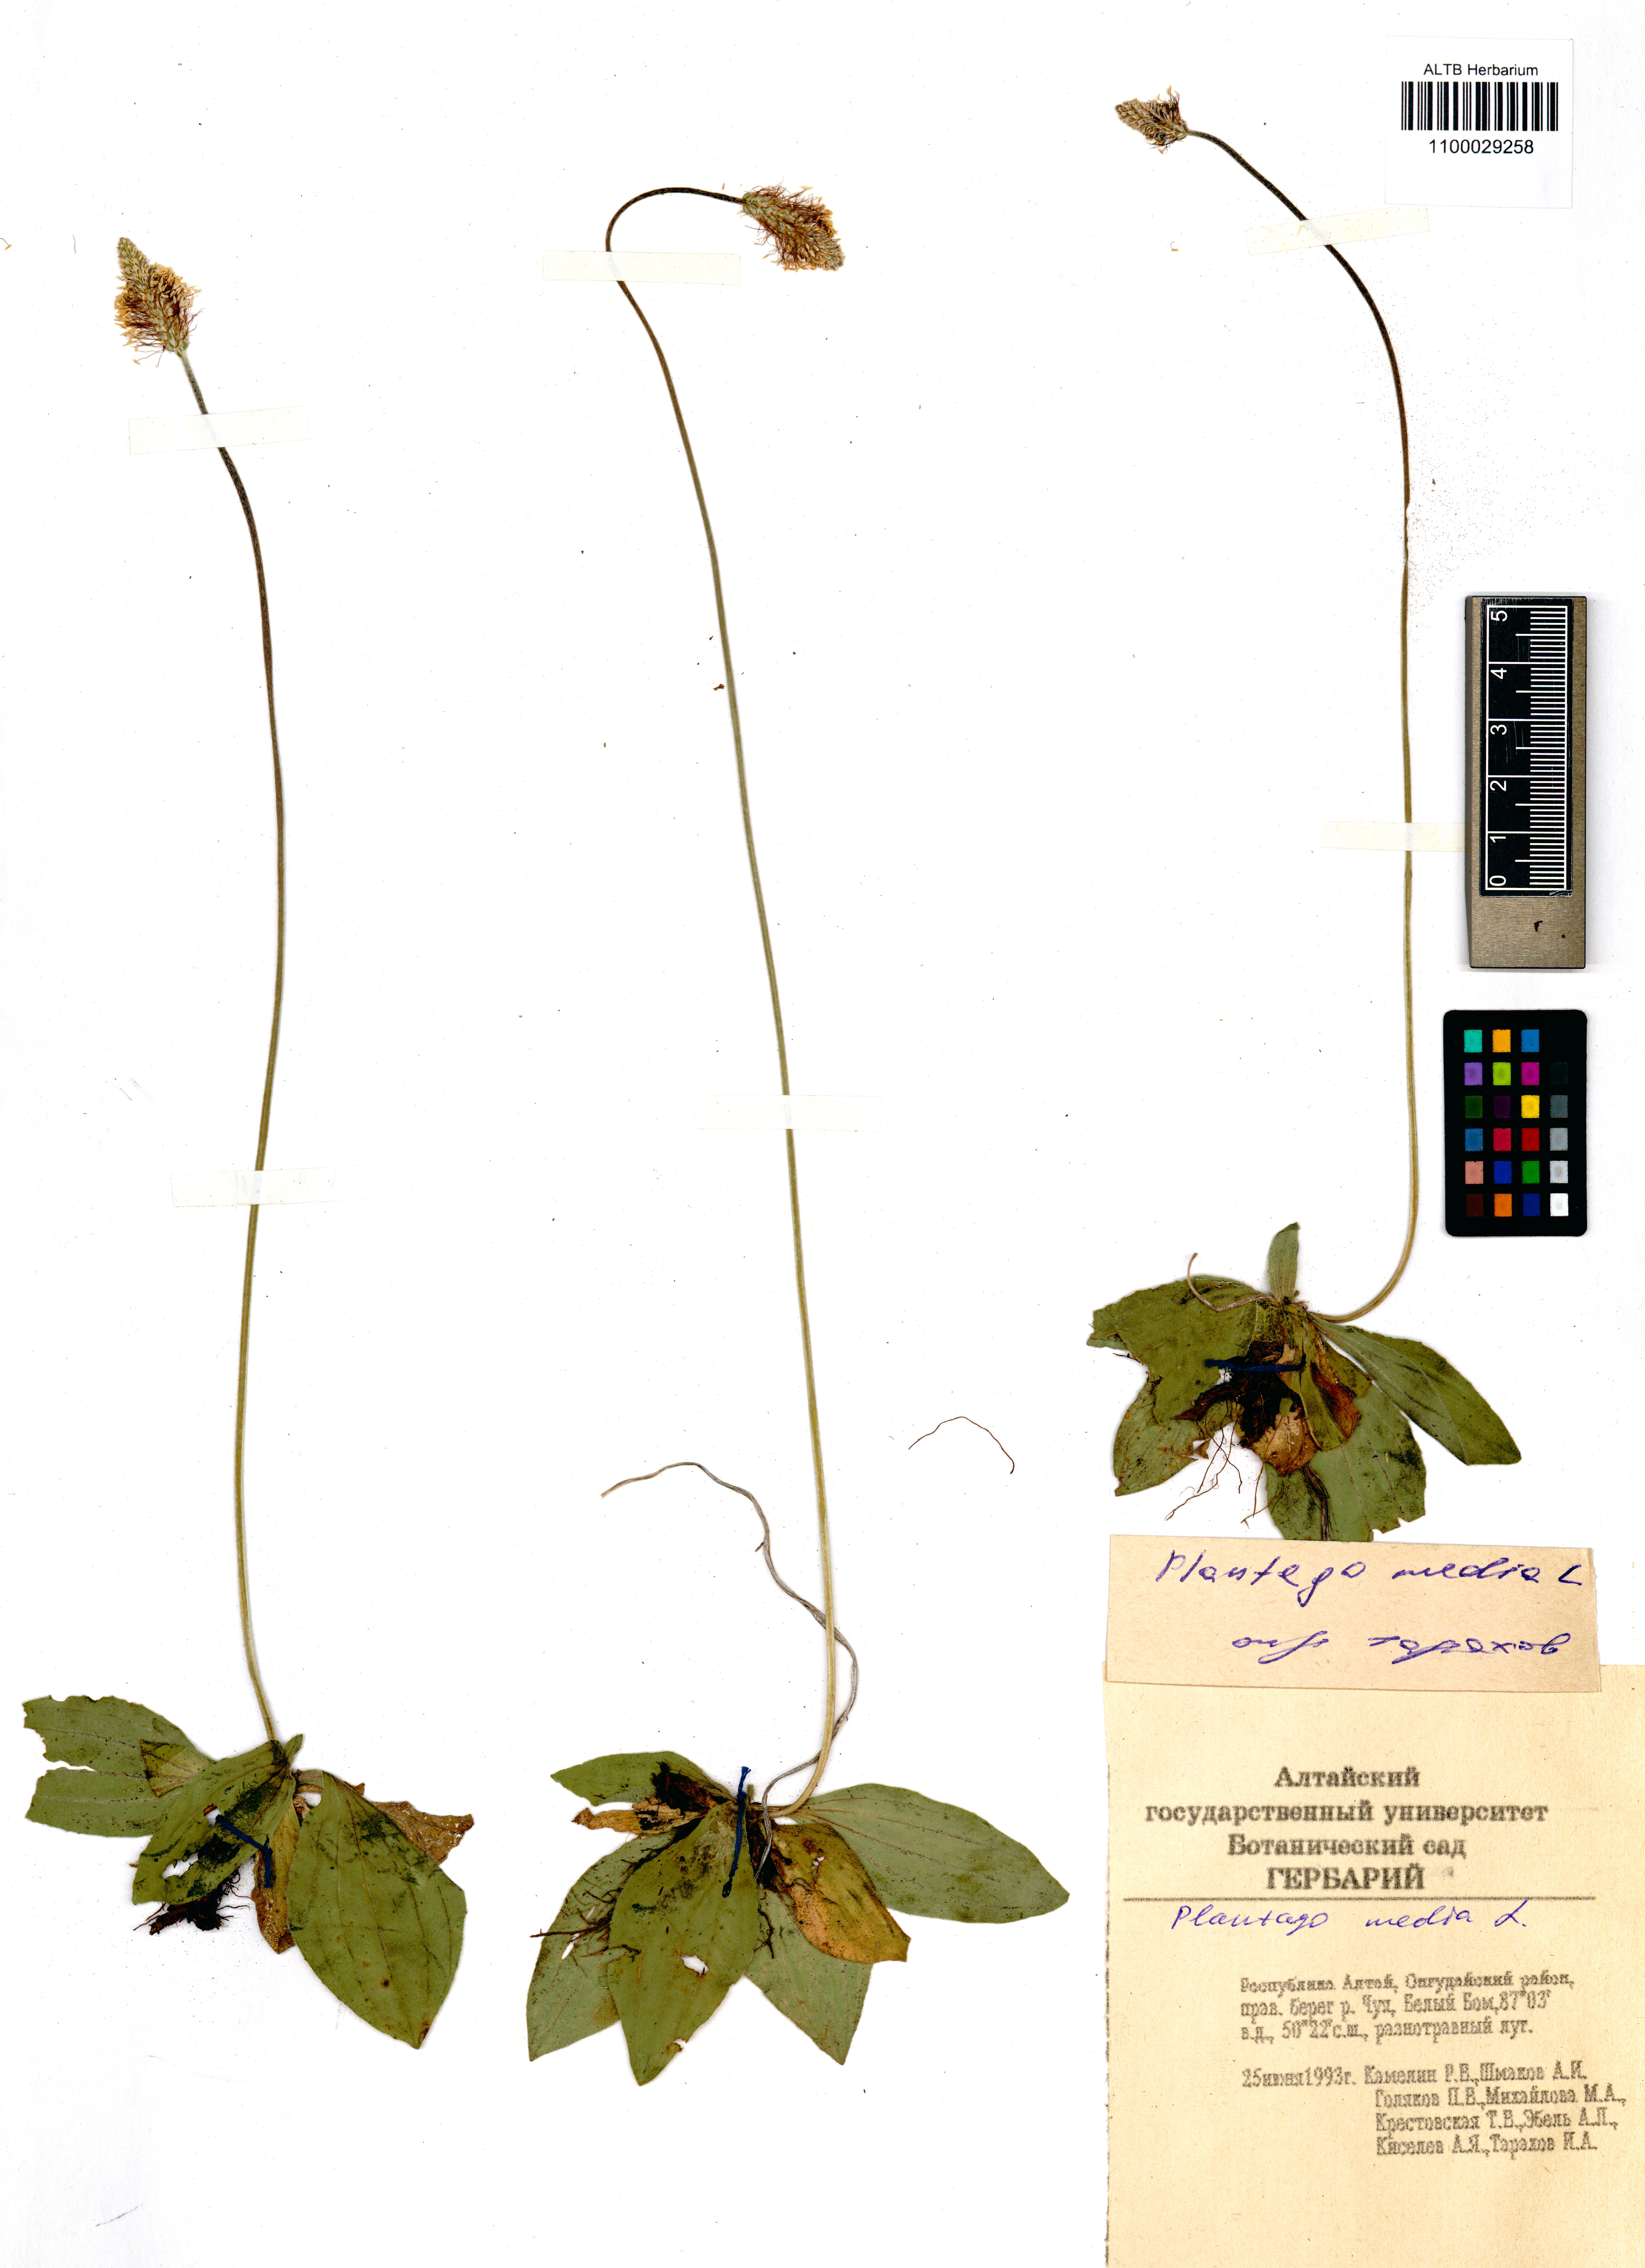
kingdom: Plantae
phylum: Tracheophyta
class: Magnoliopsida
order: Lamiales
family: Plantaginaceae
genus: Plantago
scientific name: Plantago media
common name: Hoary plantain
